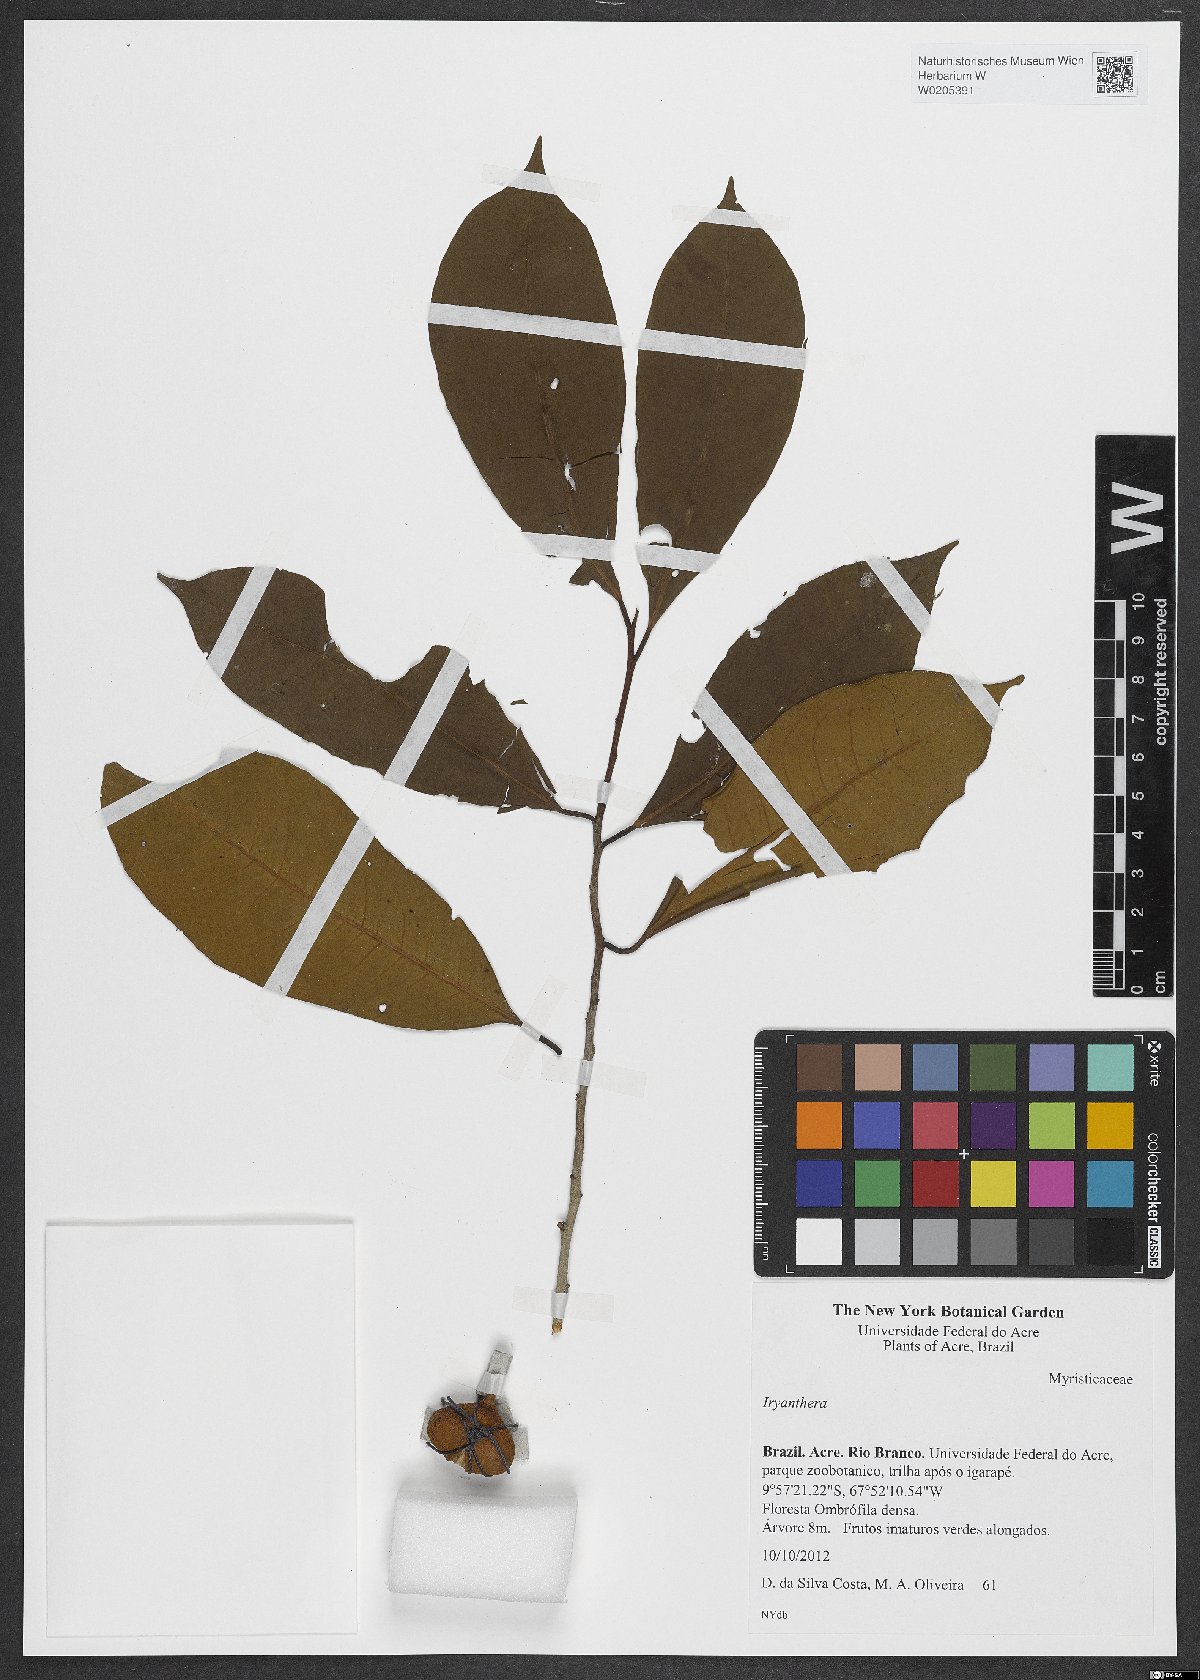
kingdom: Plantae
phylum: Tracheophyta
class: Magnoliopsida
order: Magnoliales
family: Myristicaceae
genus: Iryanthera
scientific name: Iryanthera
